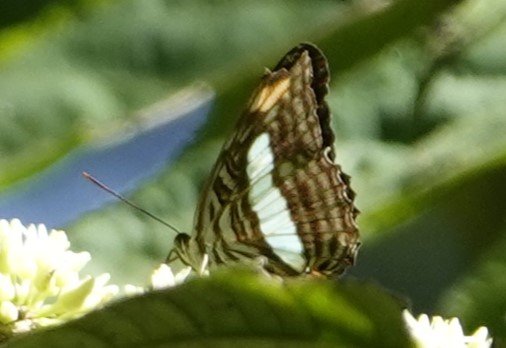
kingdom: Animalia
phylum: Arthropoda
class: Insecta
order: Lepidoptera
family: Nymphalidae
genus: Limenitis
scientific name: Limenitis Adelpha iphiclus
